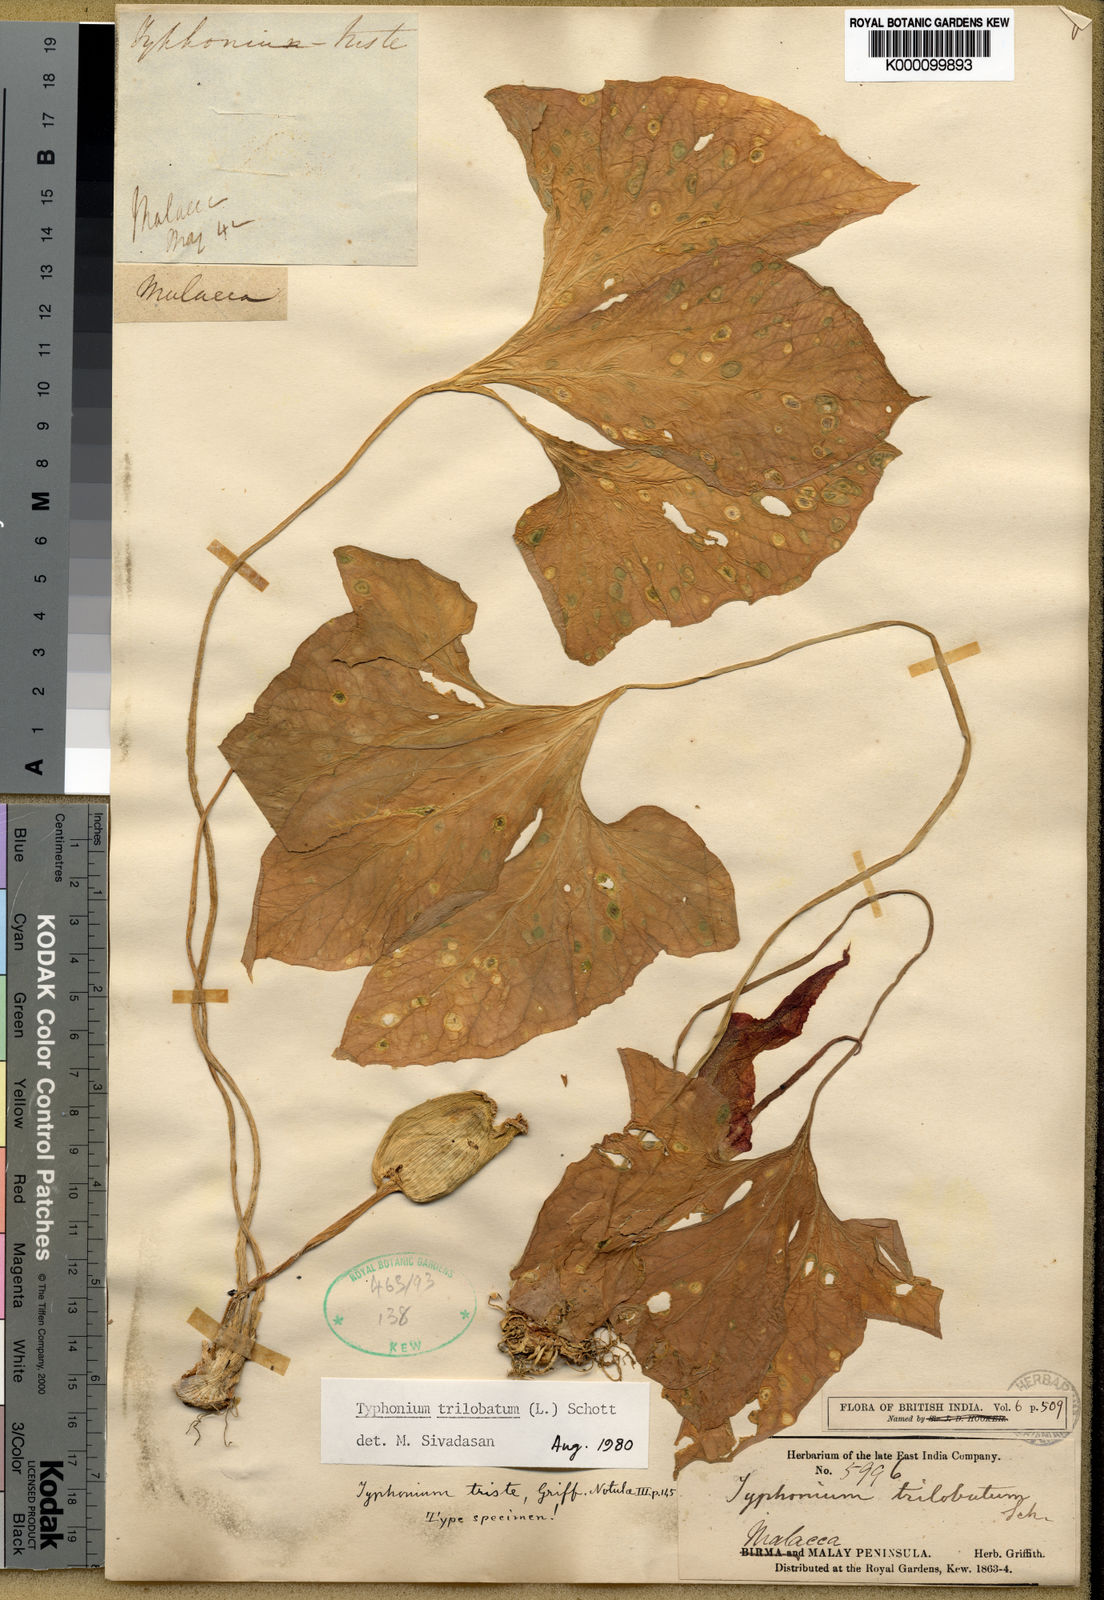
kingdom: Plantae
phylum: Tracheophyta
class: Liliopsida
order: Alismatales
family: Araceae
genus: Typhonium
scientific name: Typhonium trilobatum
